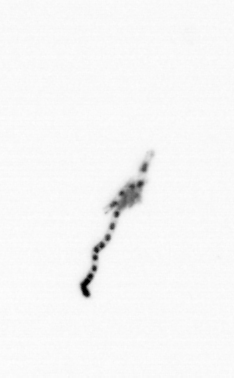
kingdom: Chromista
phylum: Ochrophyta
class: Bacillariophyceae
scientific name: Bacillariophyceae
